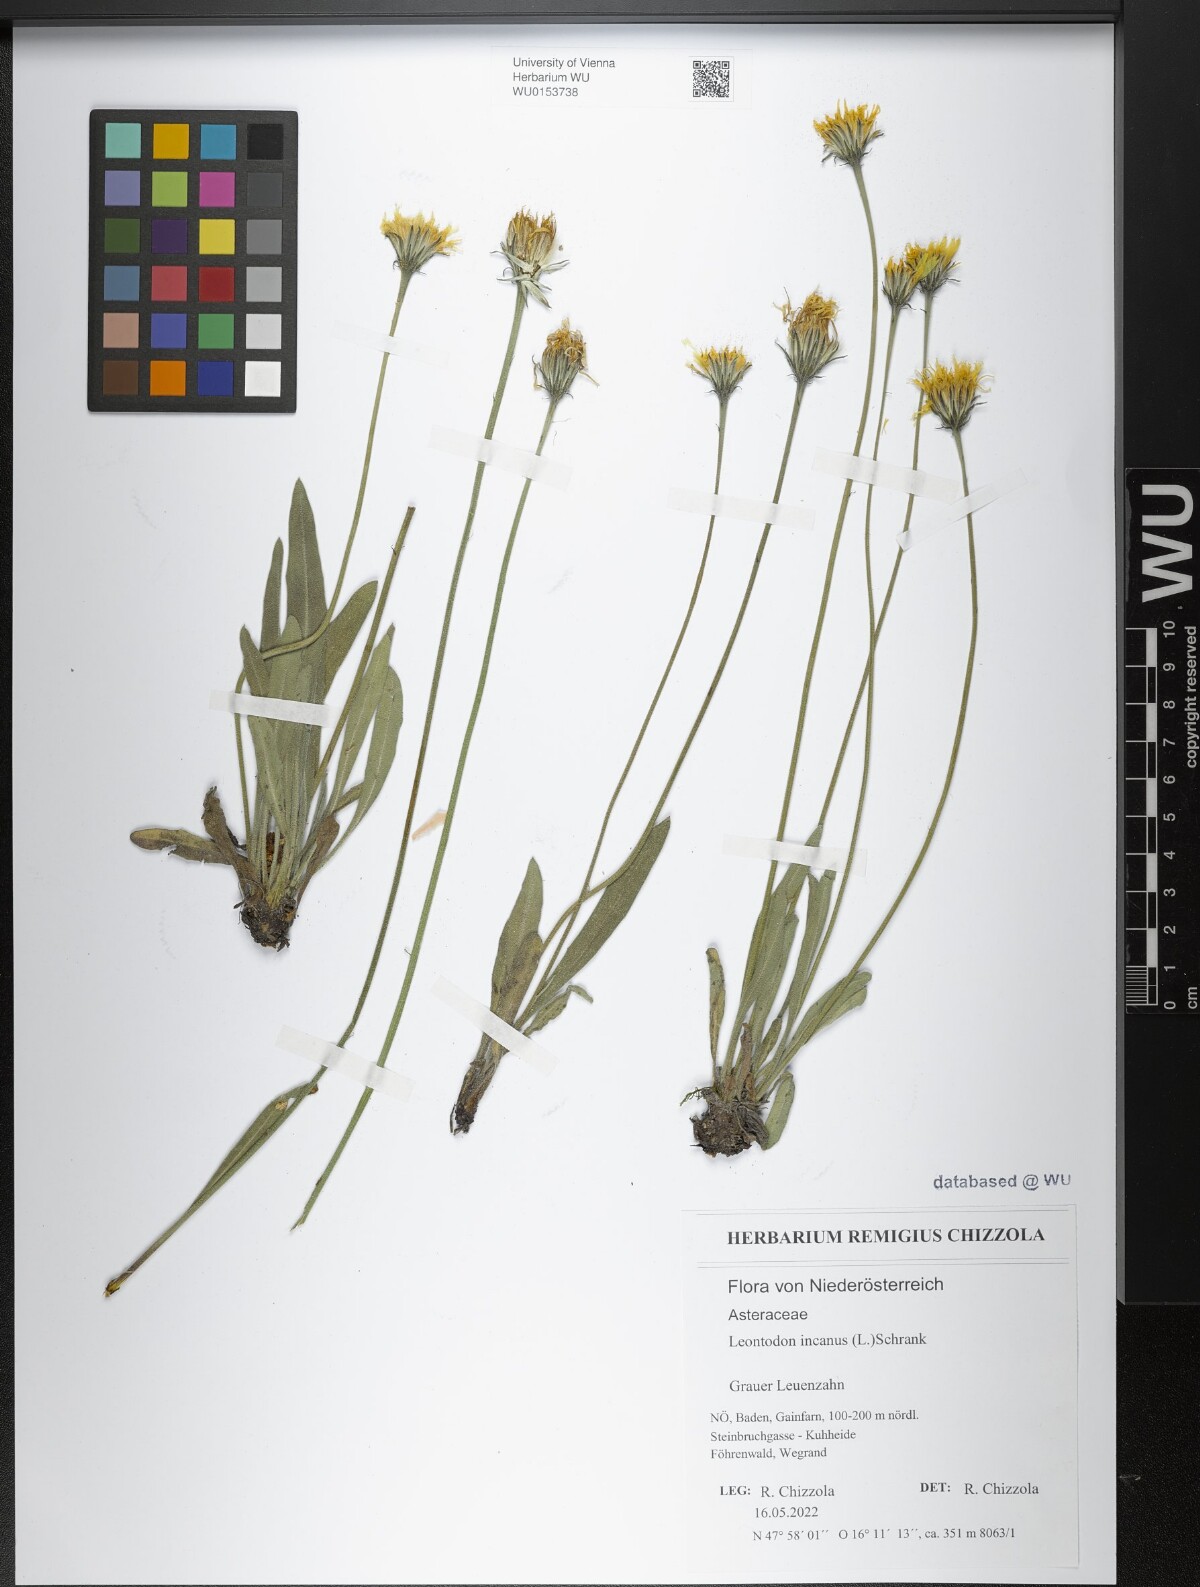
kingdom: Plantae
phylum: Tracheophyta
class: Magnoliopsida
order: Asterales
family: Asteraceae
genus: Leontodon
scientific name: Leontodon incanus
